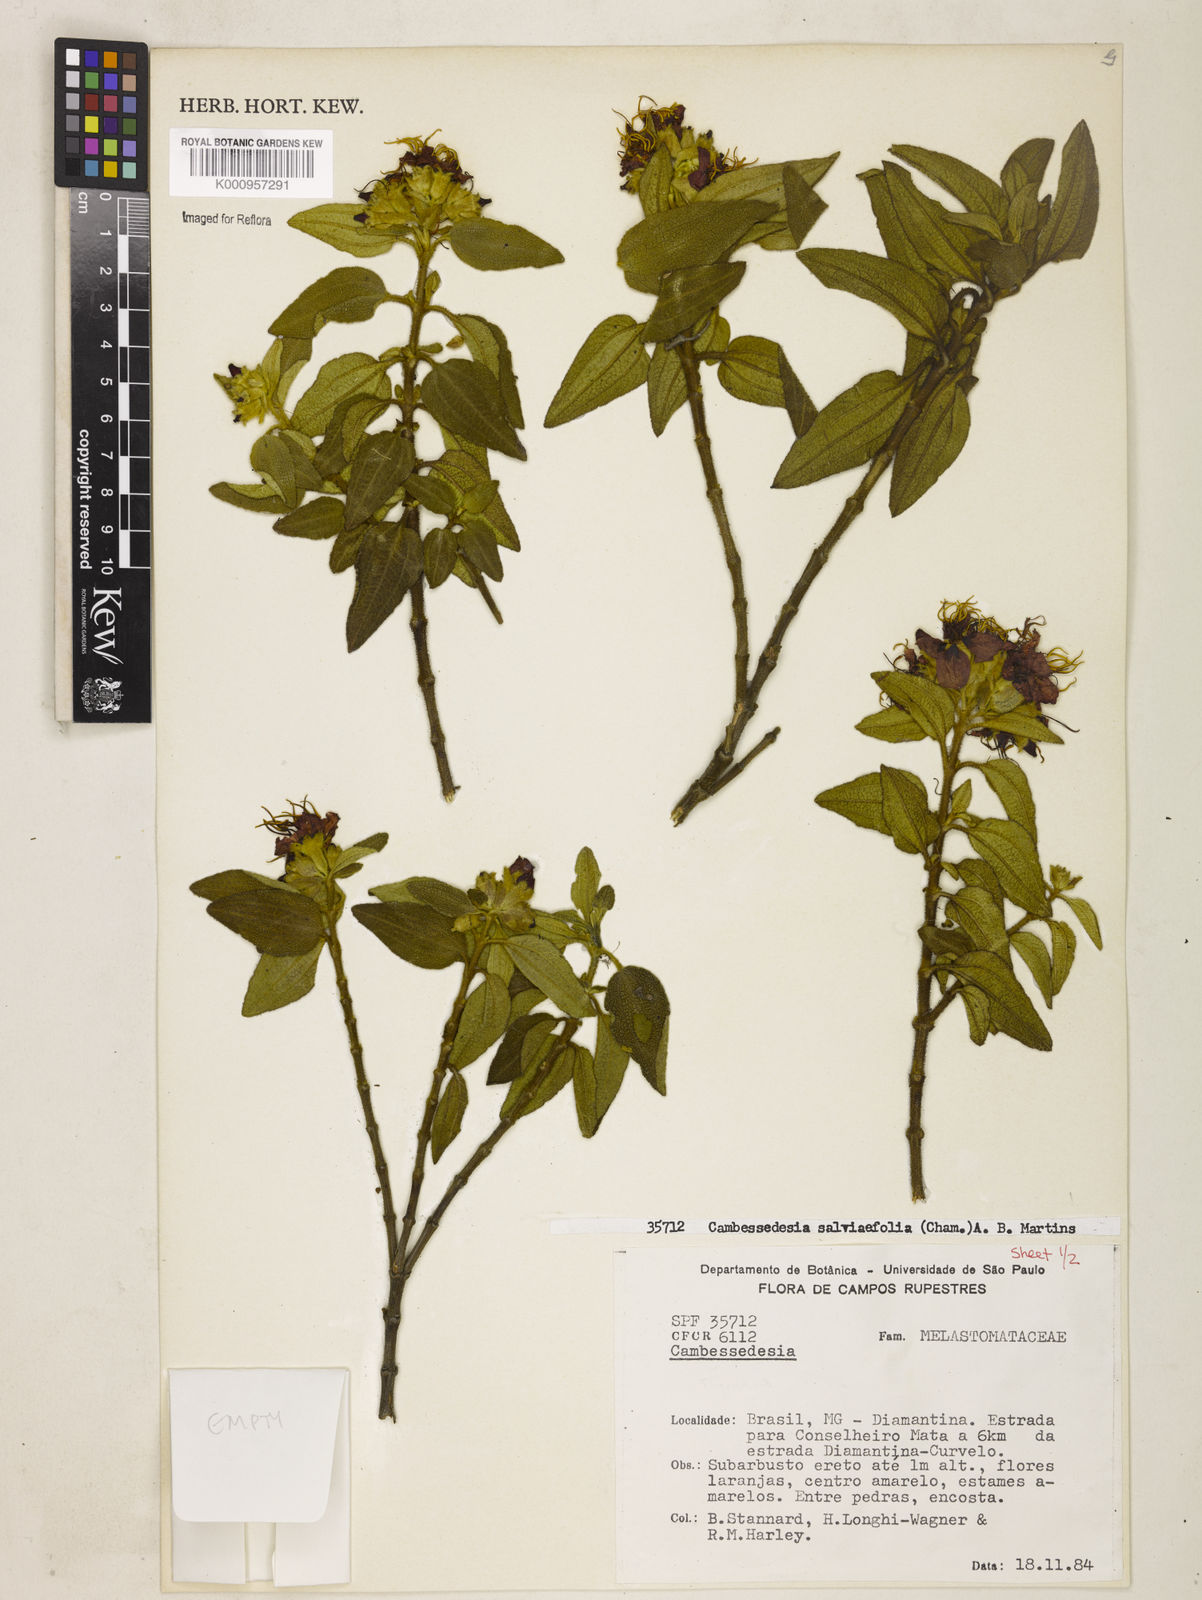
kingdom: Plantae
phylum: Tracheophyta
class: Magnoliopsida
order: Myrtales
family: Melastomataceae
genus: Cambessedesia
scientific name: Cambessedesia
